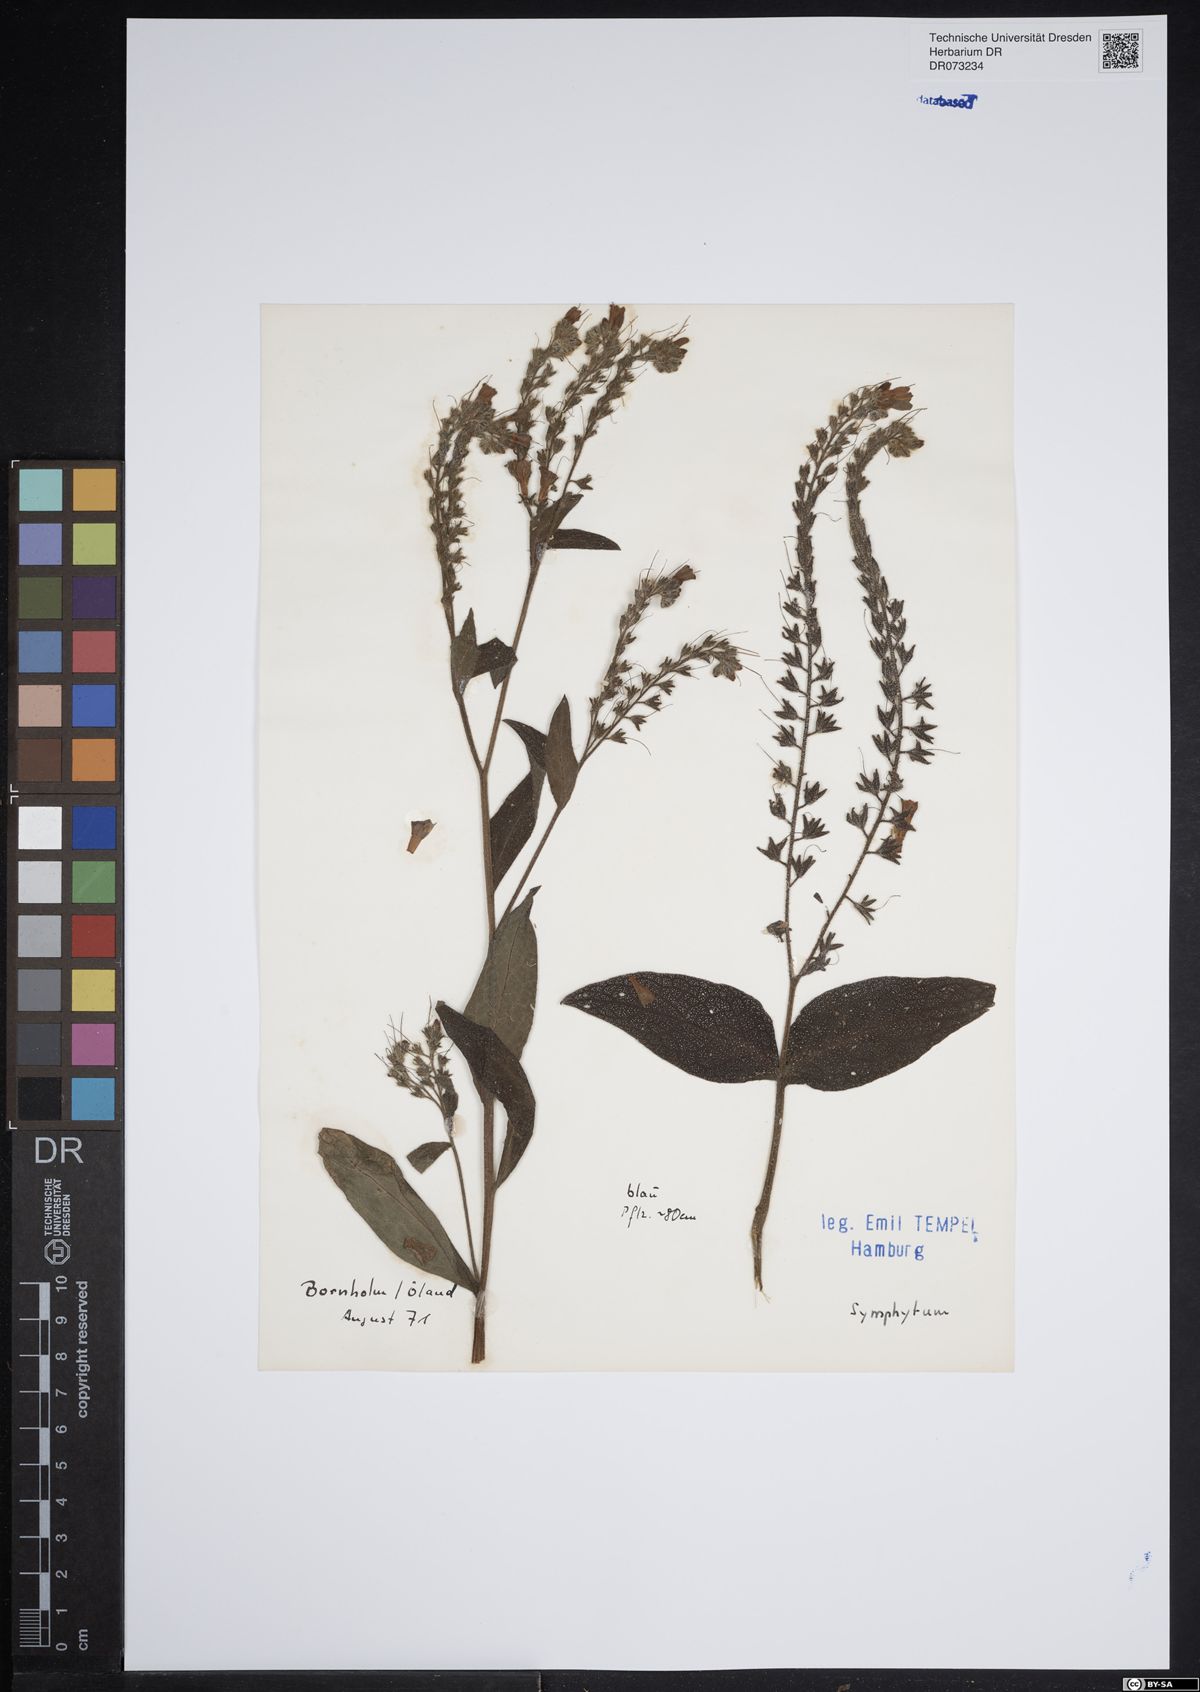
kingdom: Plantae
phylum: Tracheophyta
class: Magnoliopsida
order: Boraginales
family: Boraginaceae
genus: Symphytum
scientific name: Symphytum
